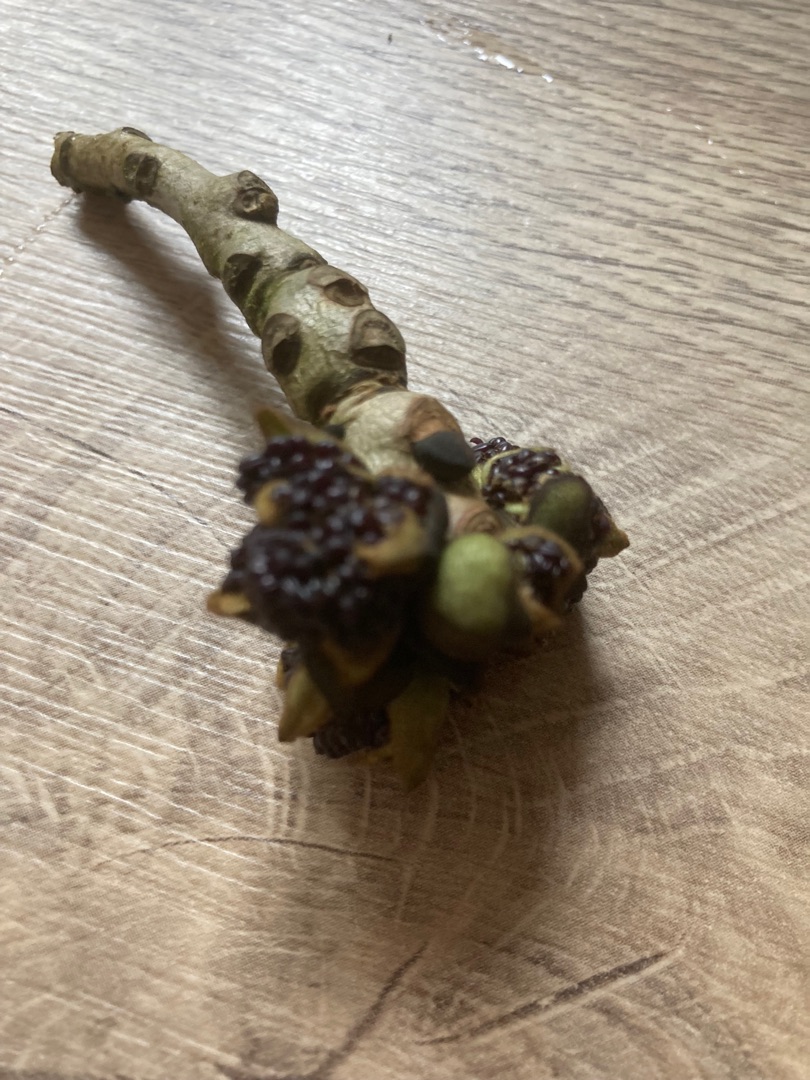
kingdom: Plantae
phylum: Tracheophyta
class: Magnoliopsida
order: Lamiales
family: Oleaceae
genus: Fraxinus
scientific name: Fraxinus excelsior
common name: Ask
